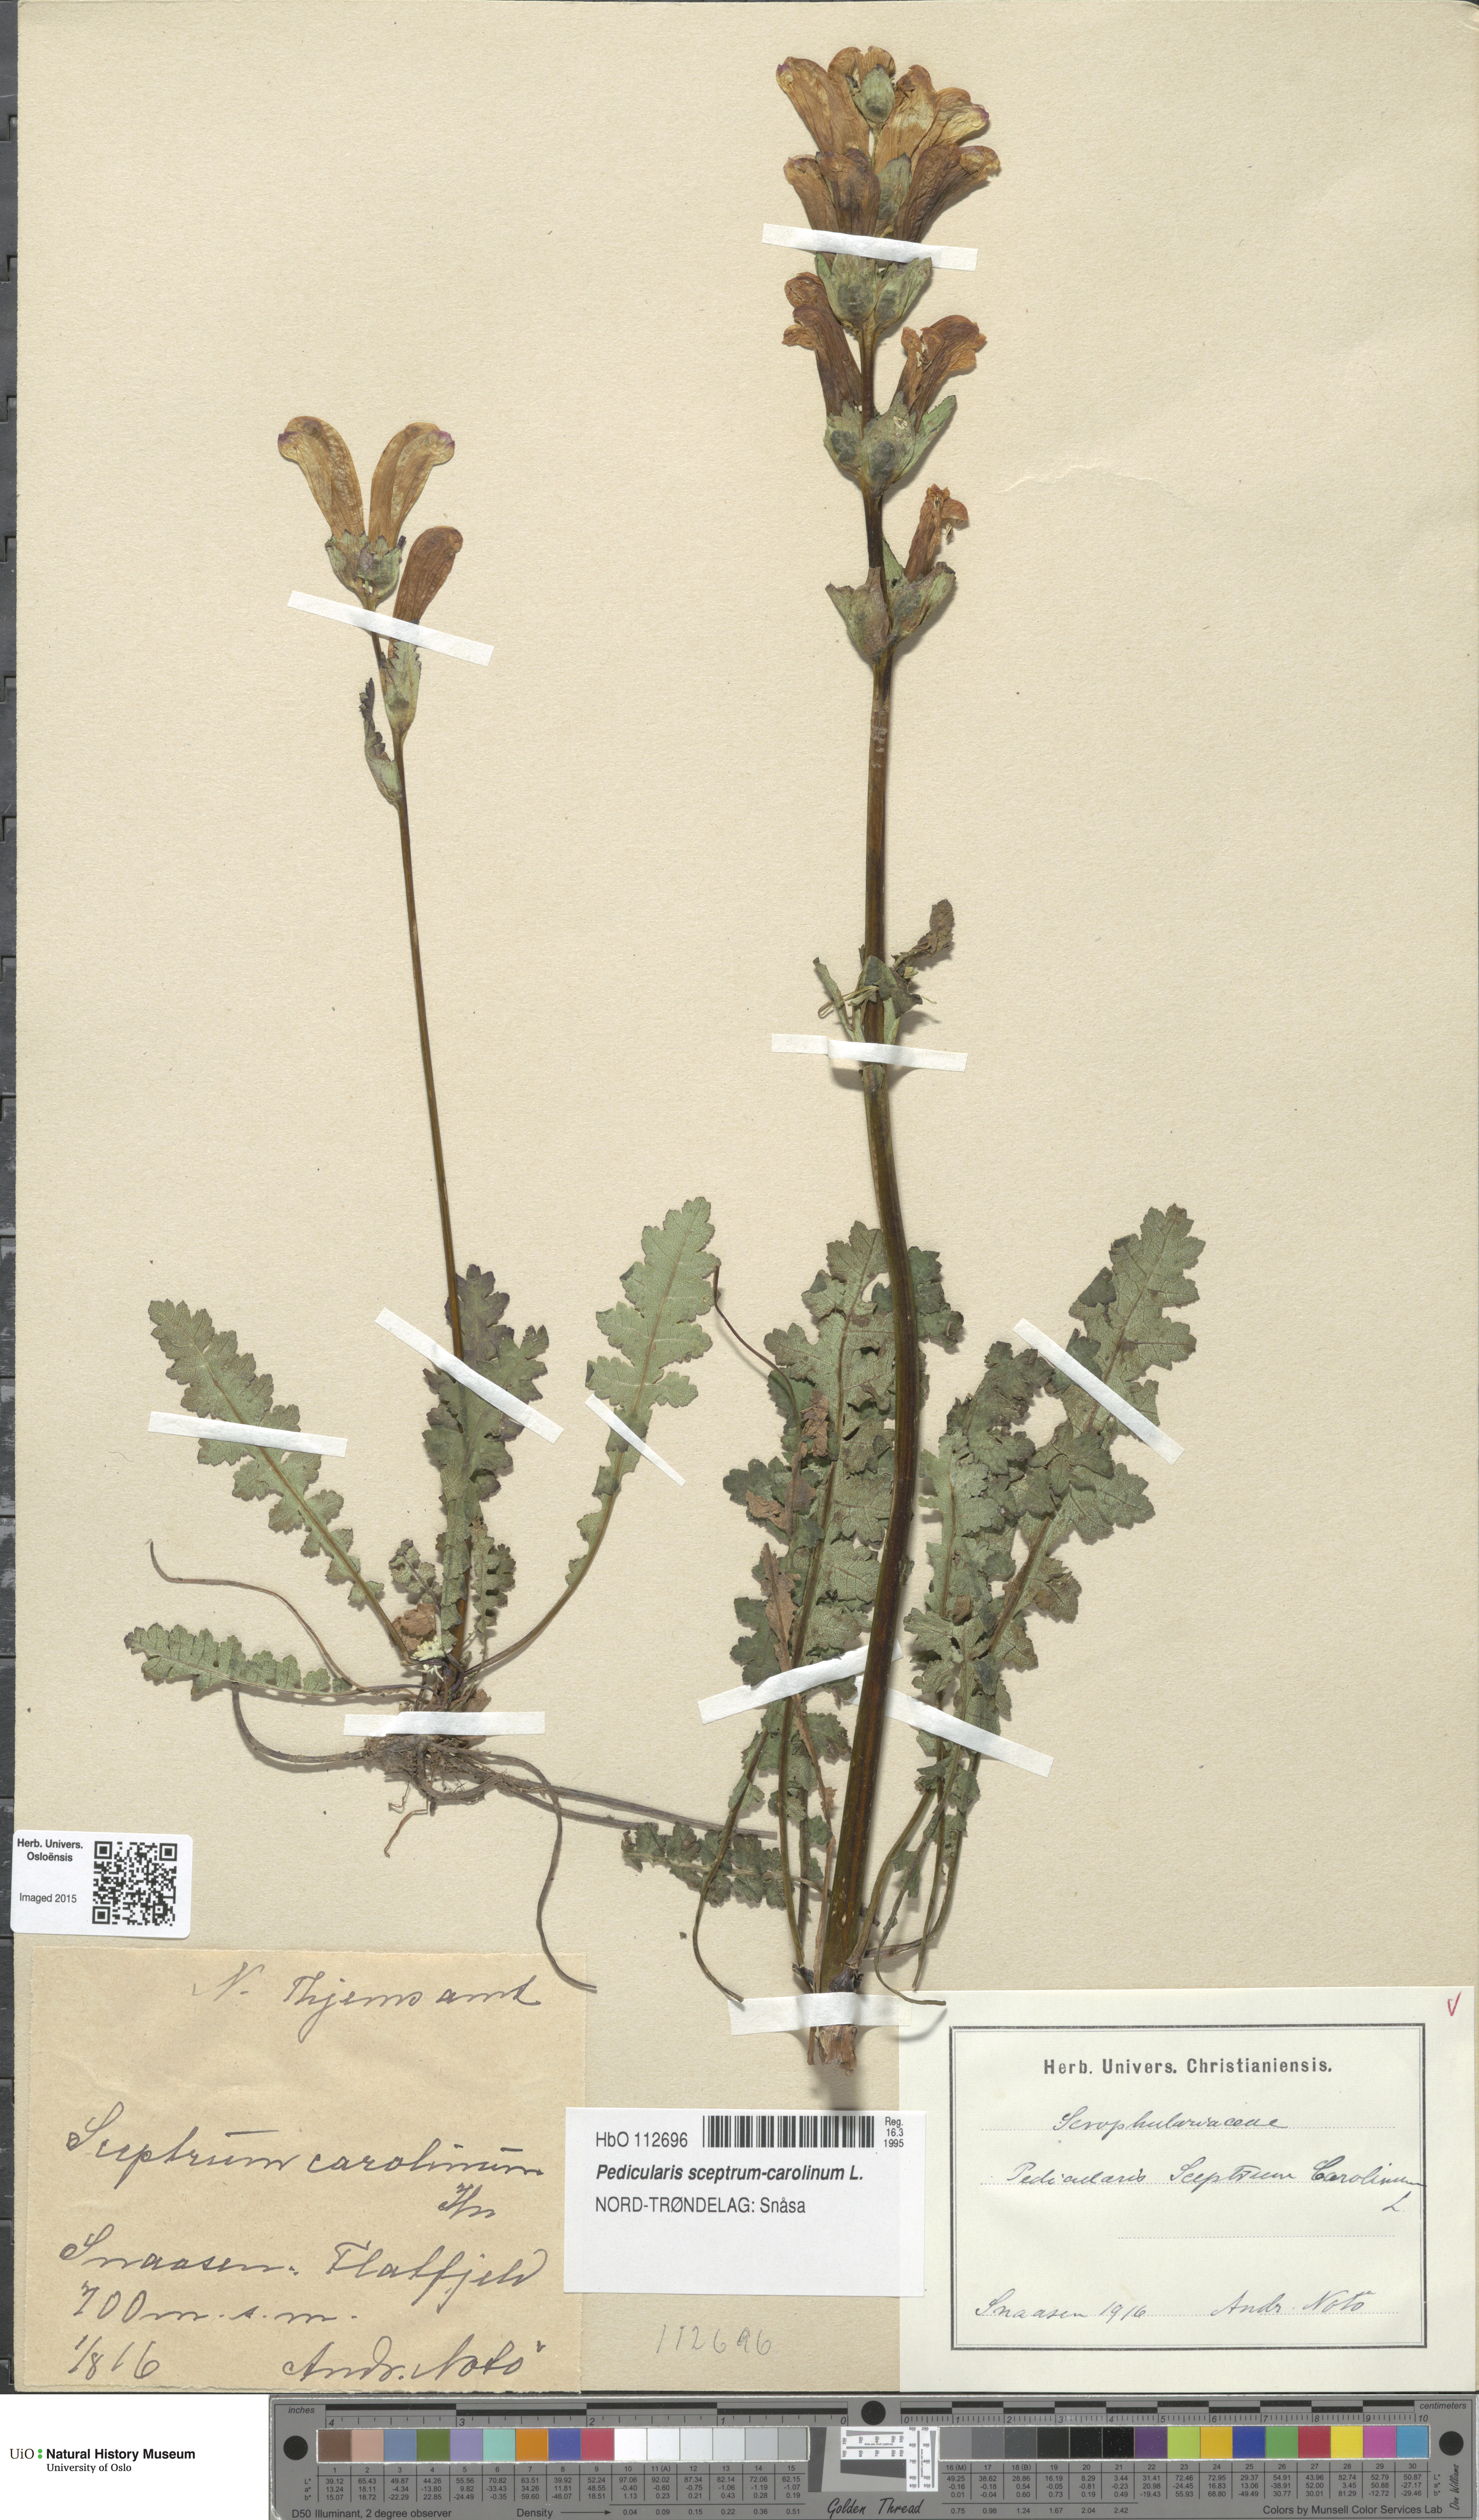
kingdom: Plantae
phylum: Tracheophyta
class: Magnoliopsida
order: Lamiales
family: Orobanchaceae
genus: Pedicularis
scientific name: Pedicularis sceptrum-carolinum
